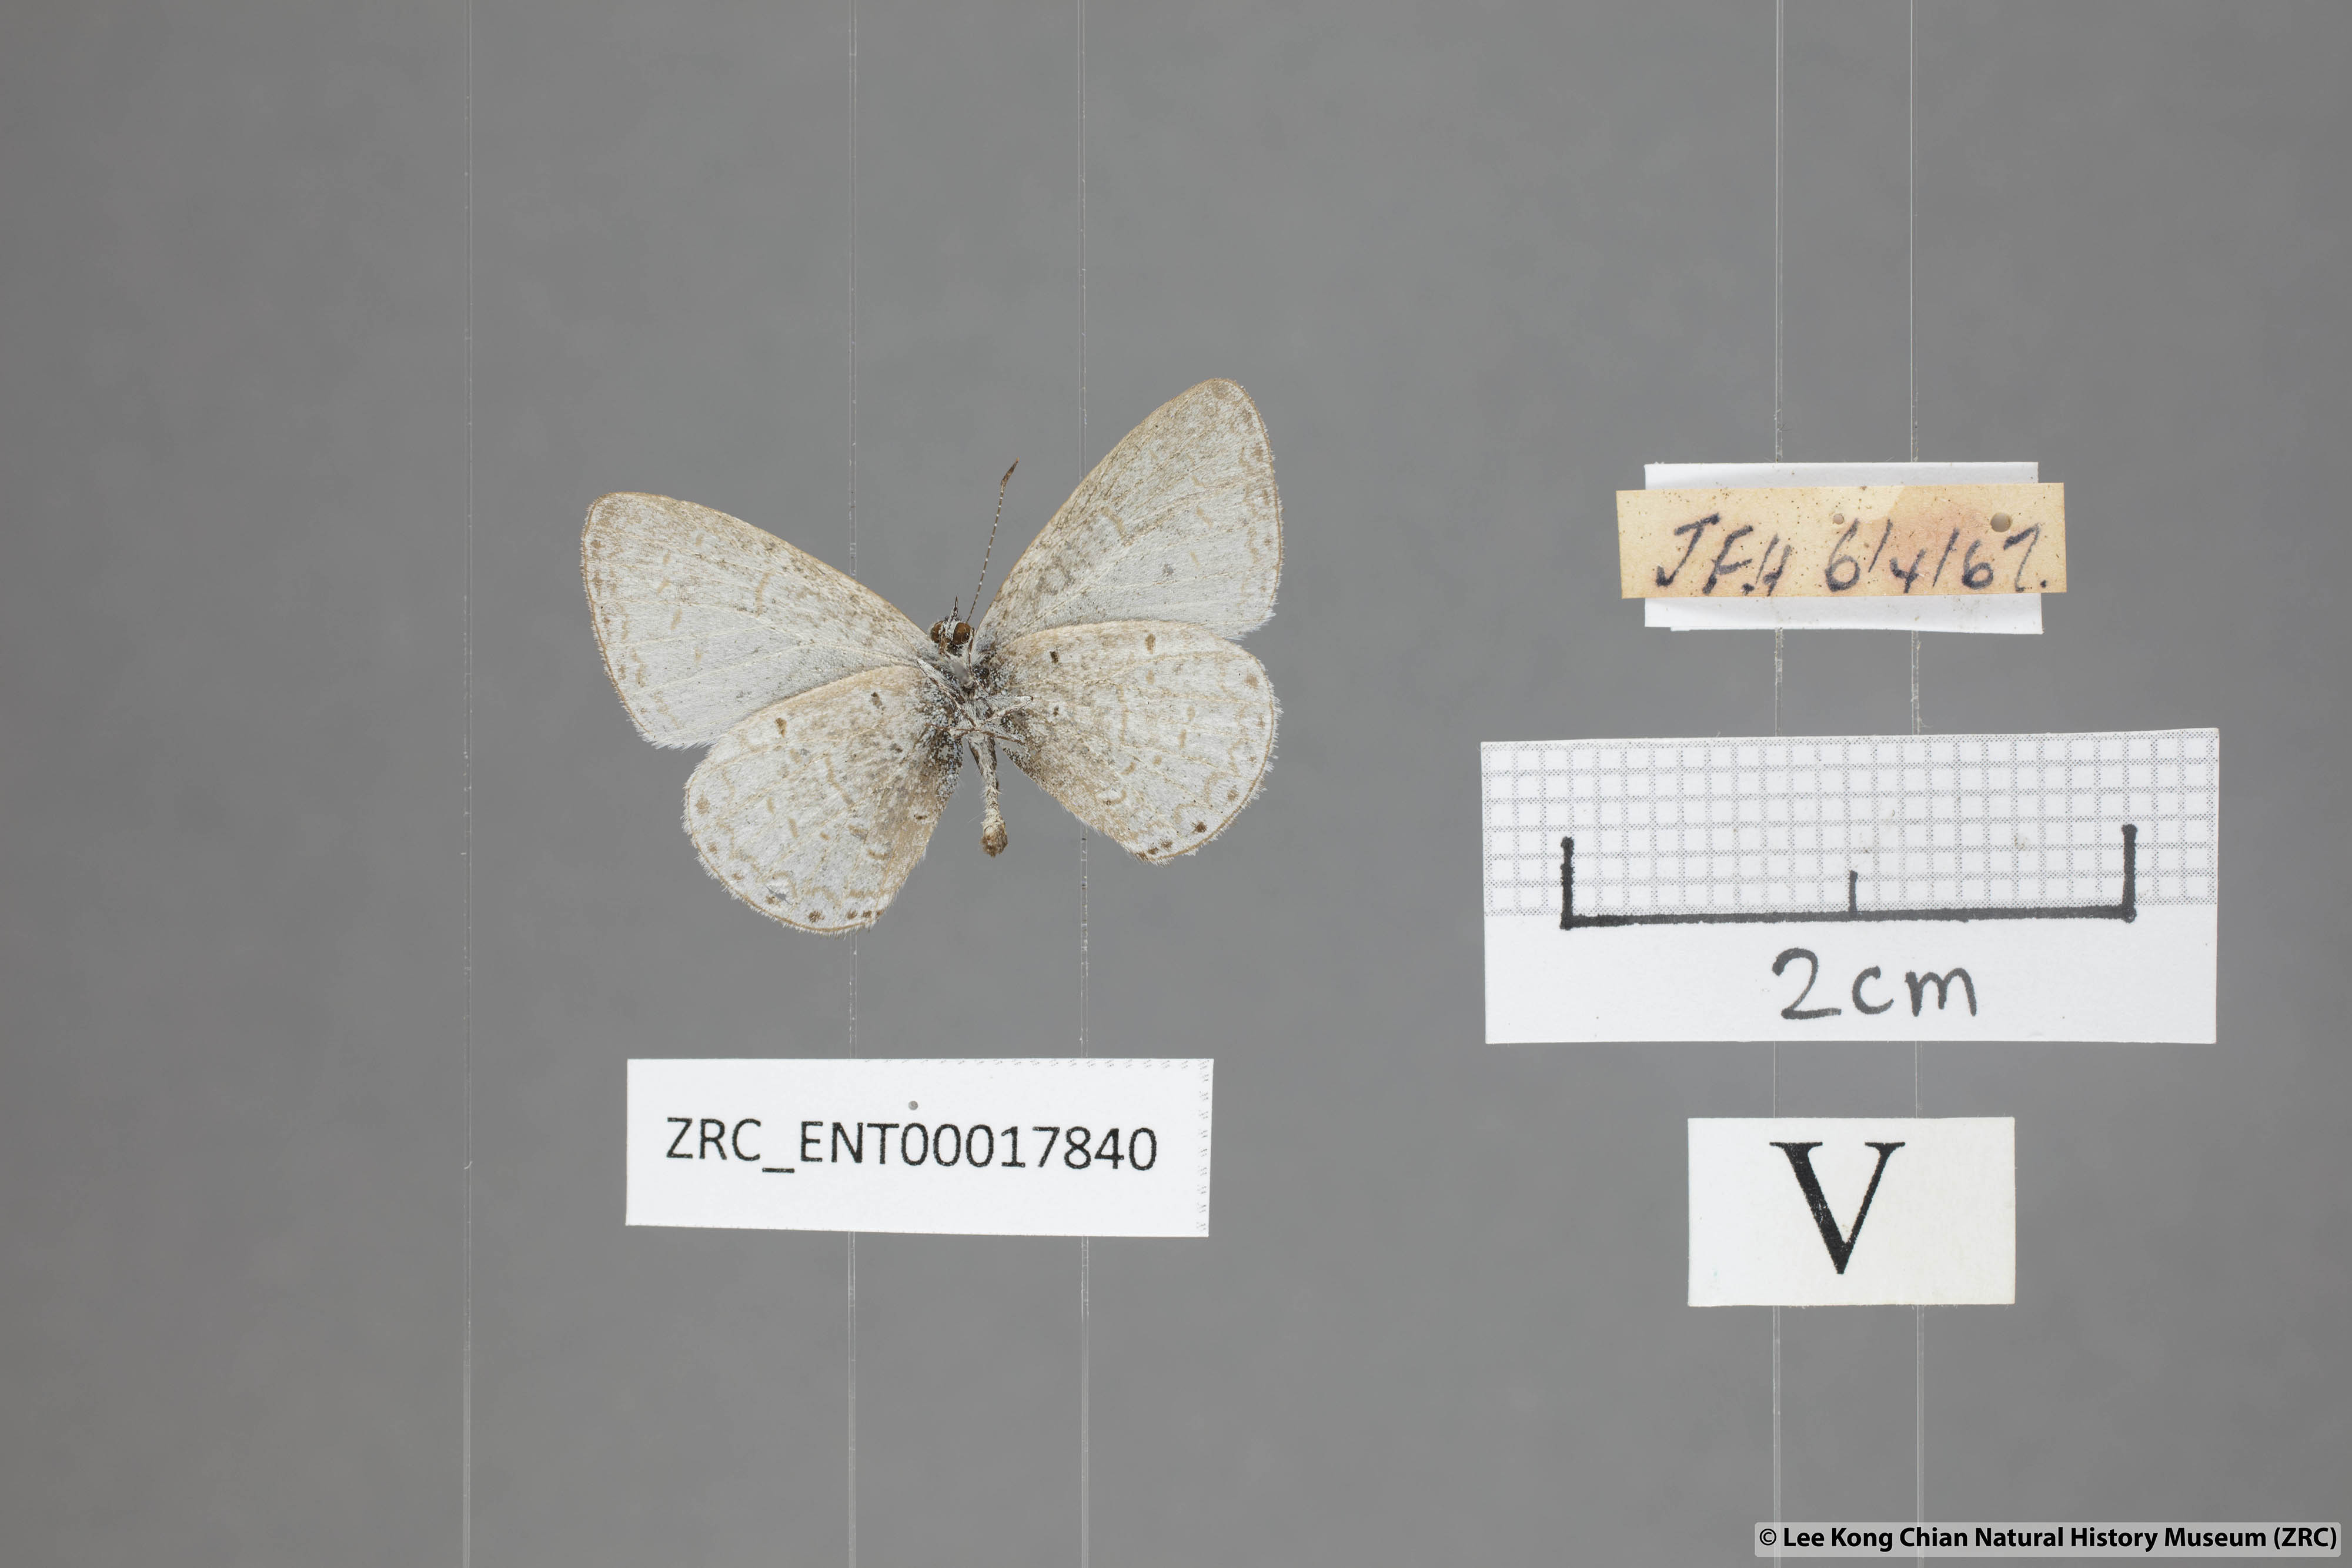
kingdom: Animalia
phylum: Arthropoda
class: Insecta
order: Lepidoptera
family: Lycaenidae
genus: Udara
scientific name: Udara
